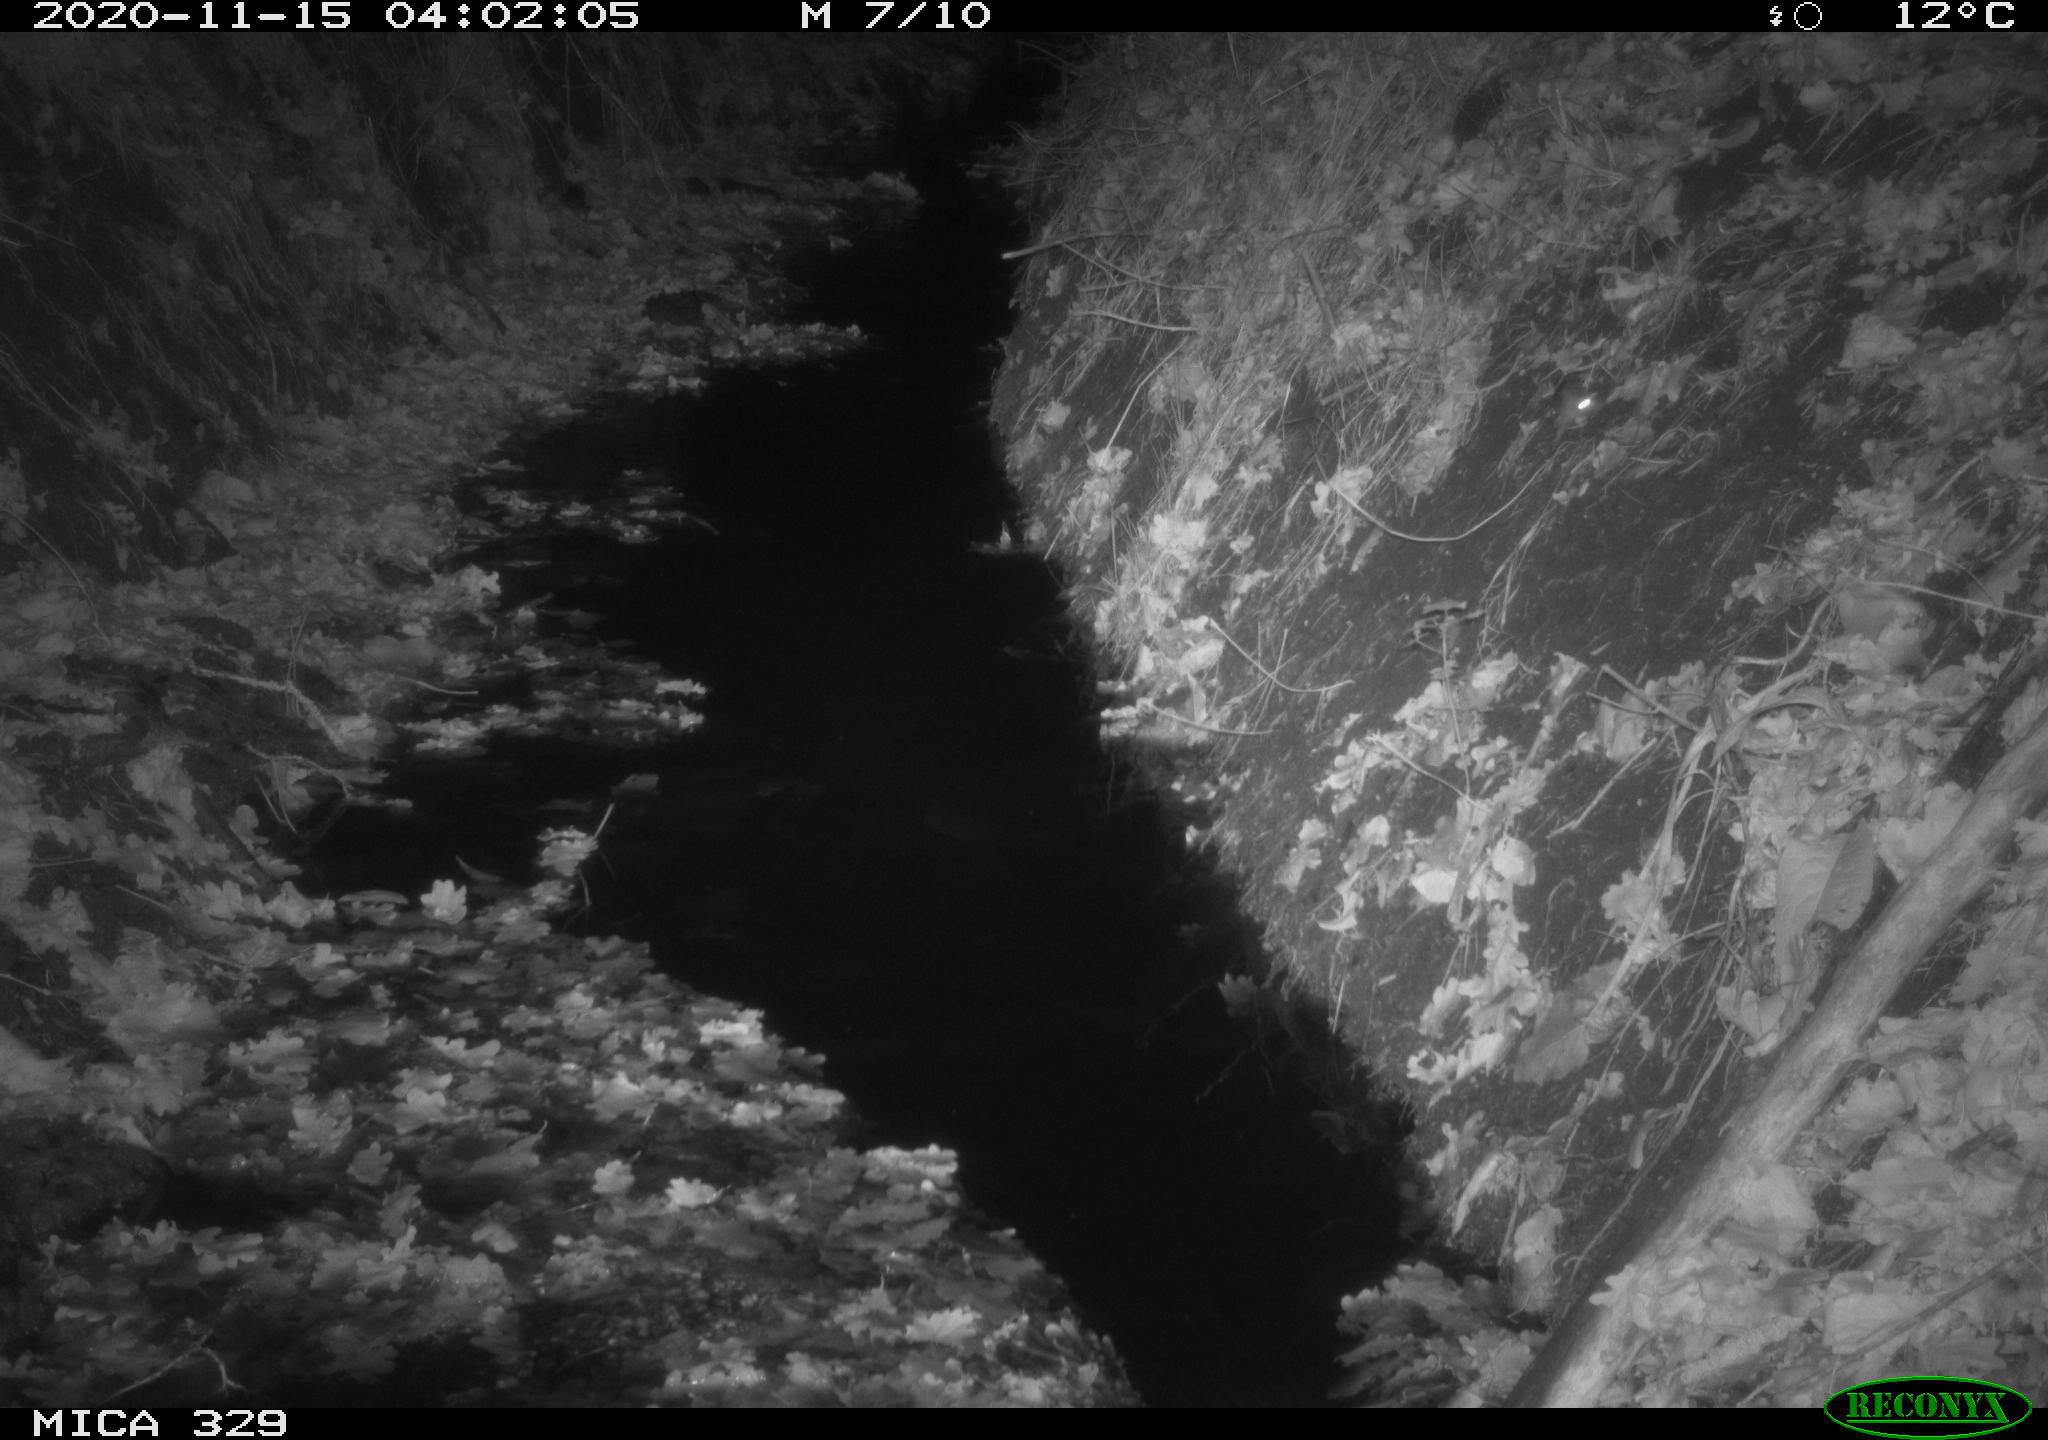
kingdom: Animalia
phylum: Chordata
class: Mammalia
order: Rodentia
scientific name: Rodentia
